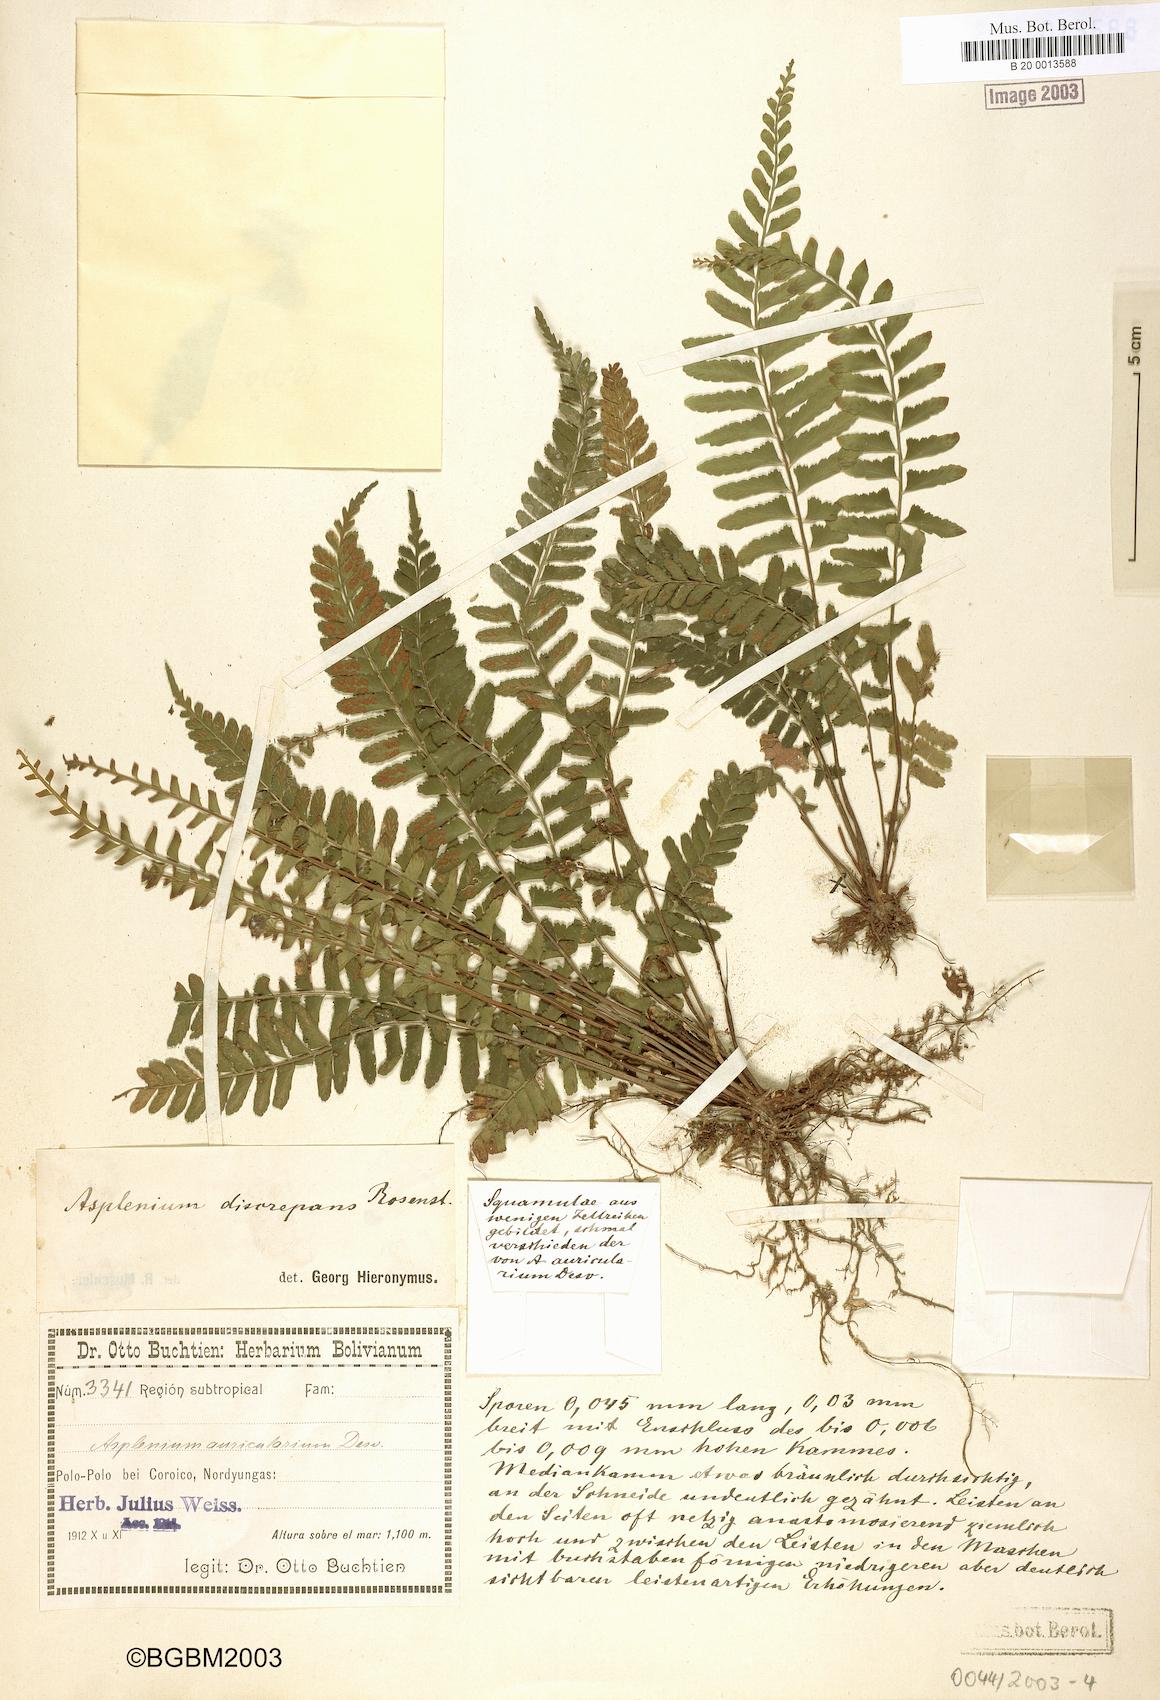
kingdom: Plantae
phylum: Tracheophyta
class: Polypodiopsida
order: Polypodiales
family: Aspleniaceae
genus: Asplenium
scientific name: Asplenium discrepans
